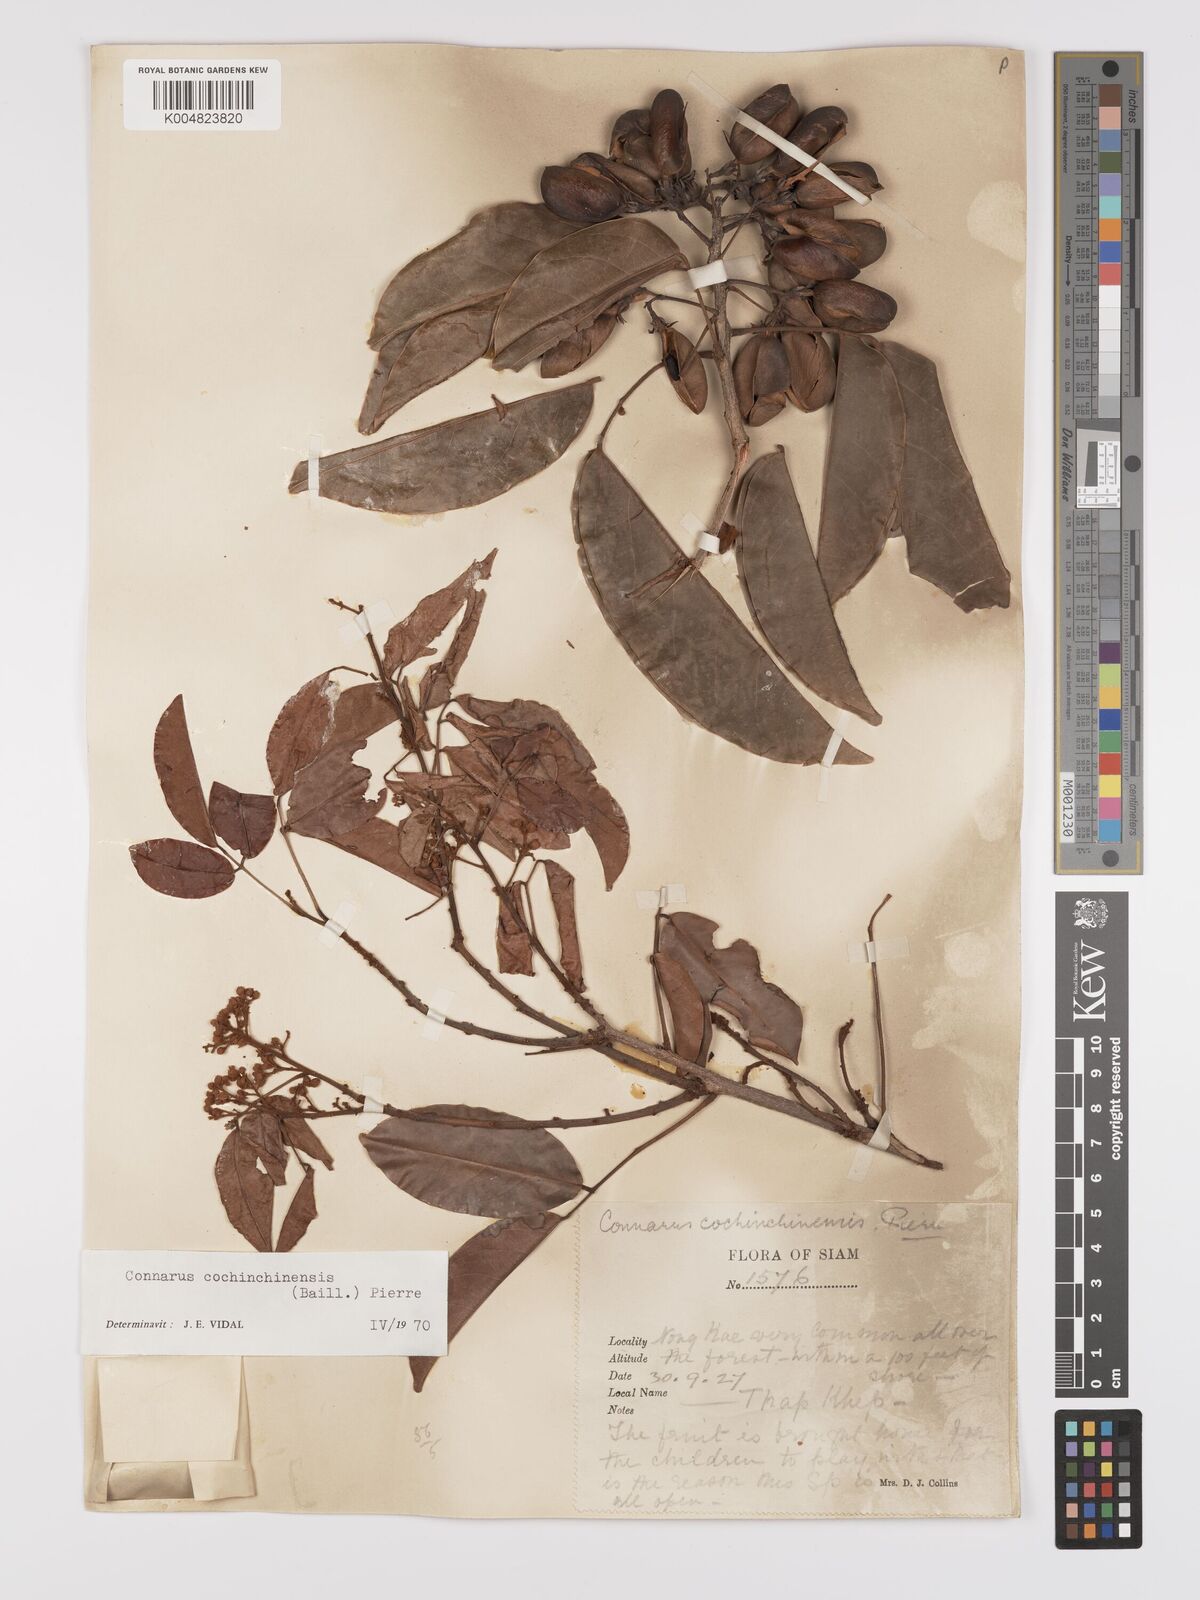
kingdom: Plantae
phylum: Tracheophyta
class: Magnoliopsida
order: Oxalidales
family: Connaraceae
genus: Connarus
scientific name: Connarus cochinchinensis
